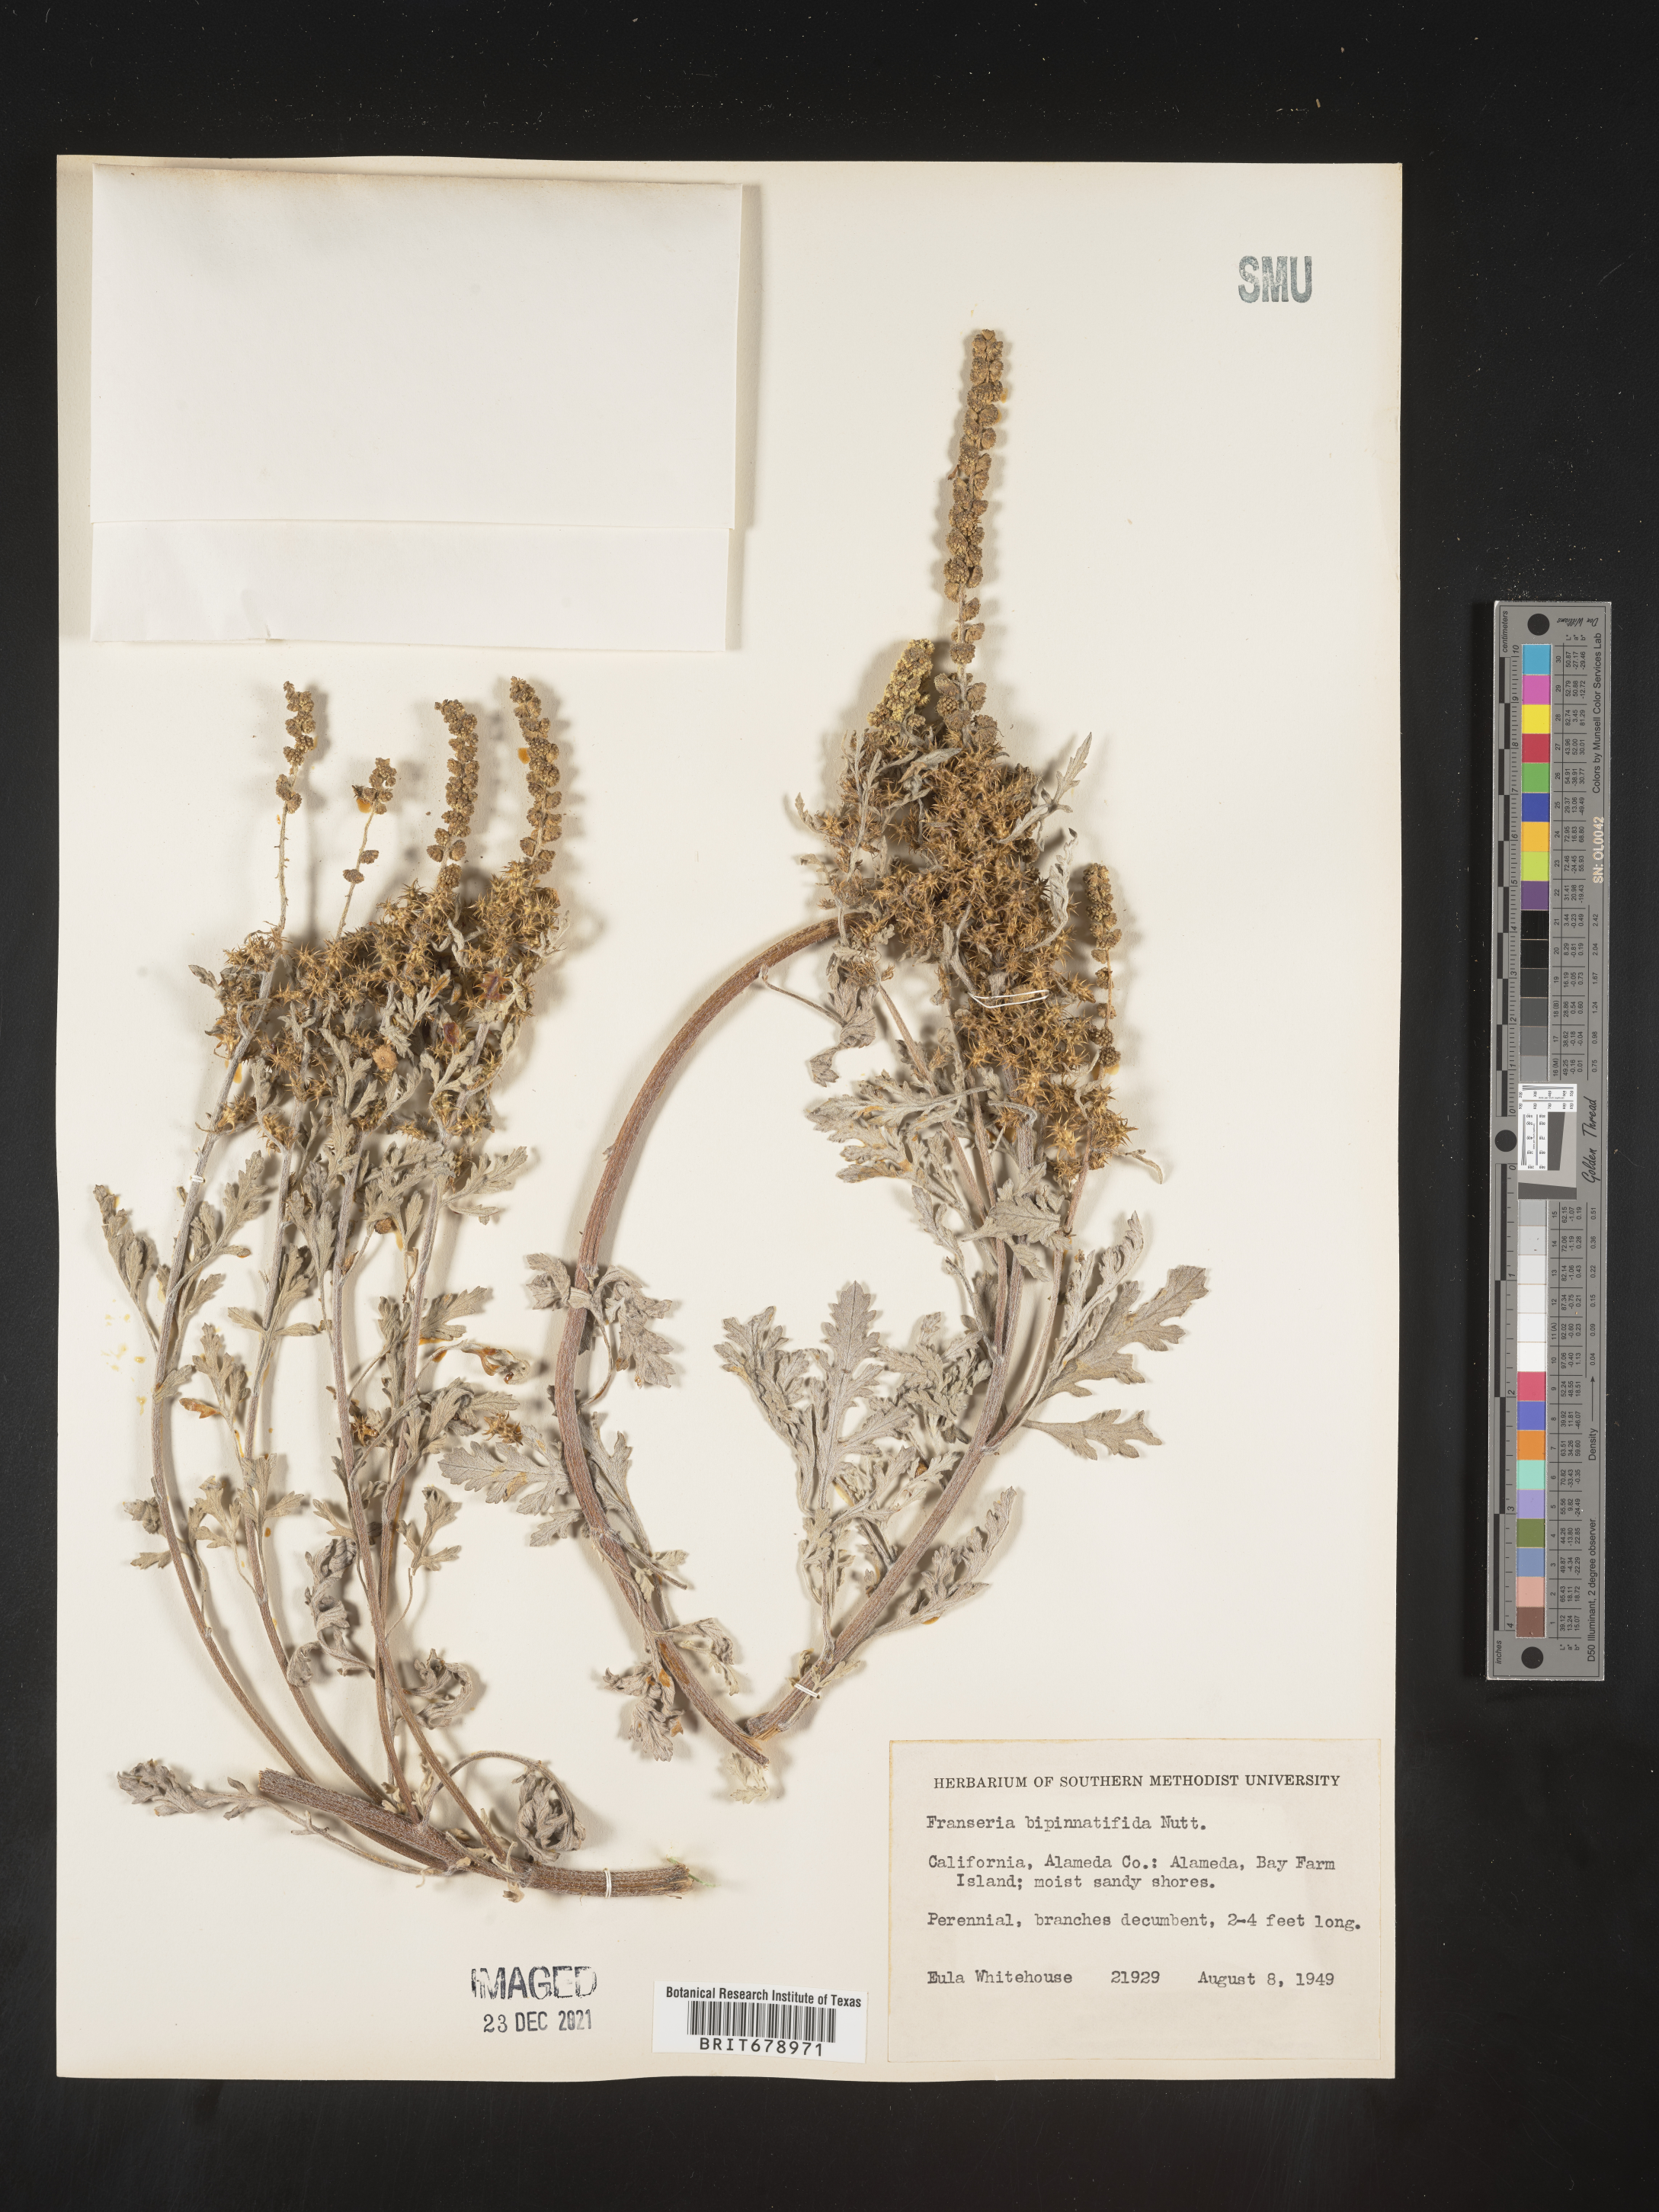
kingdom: Plantae
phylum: Tracheophyta
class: Magnoliopsida
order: Asterales
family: Asteraceae
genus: Ambrosia
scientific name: Ambrosia camphorata
